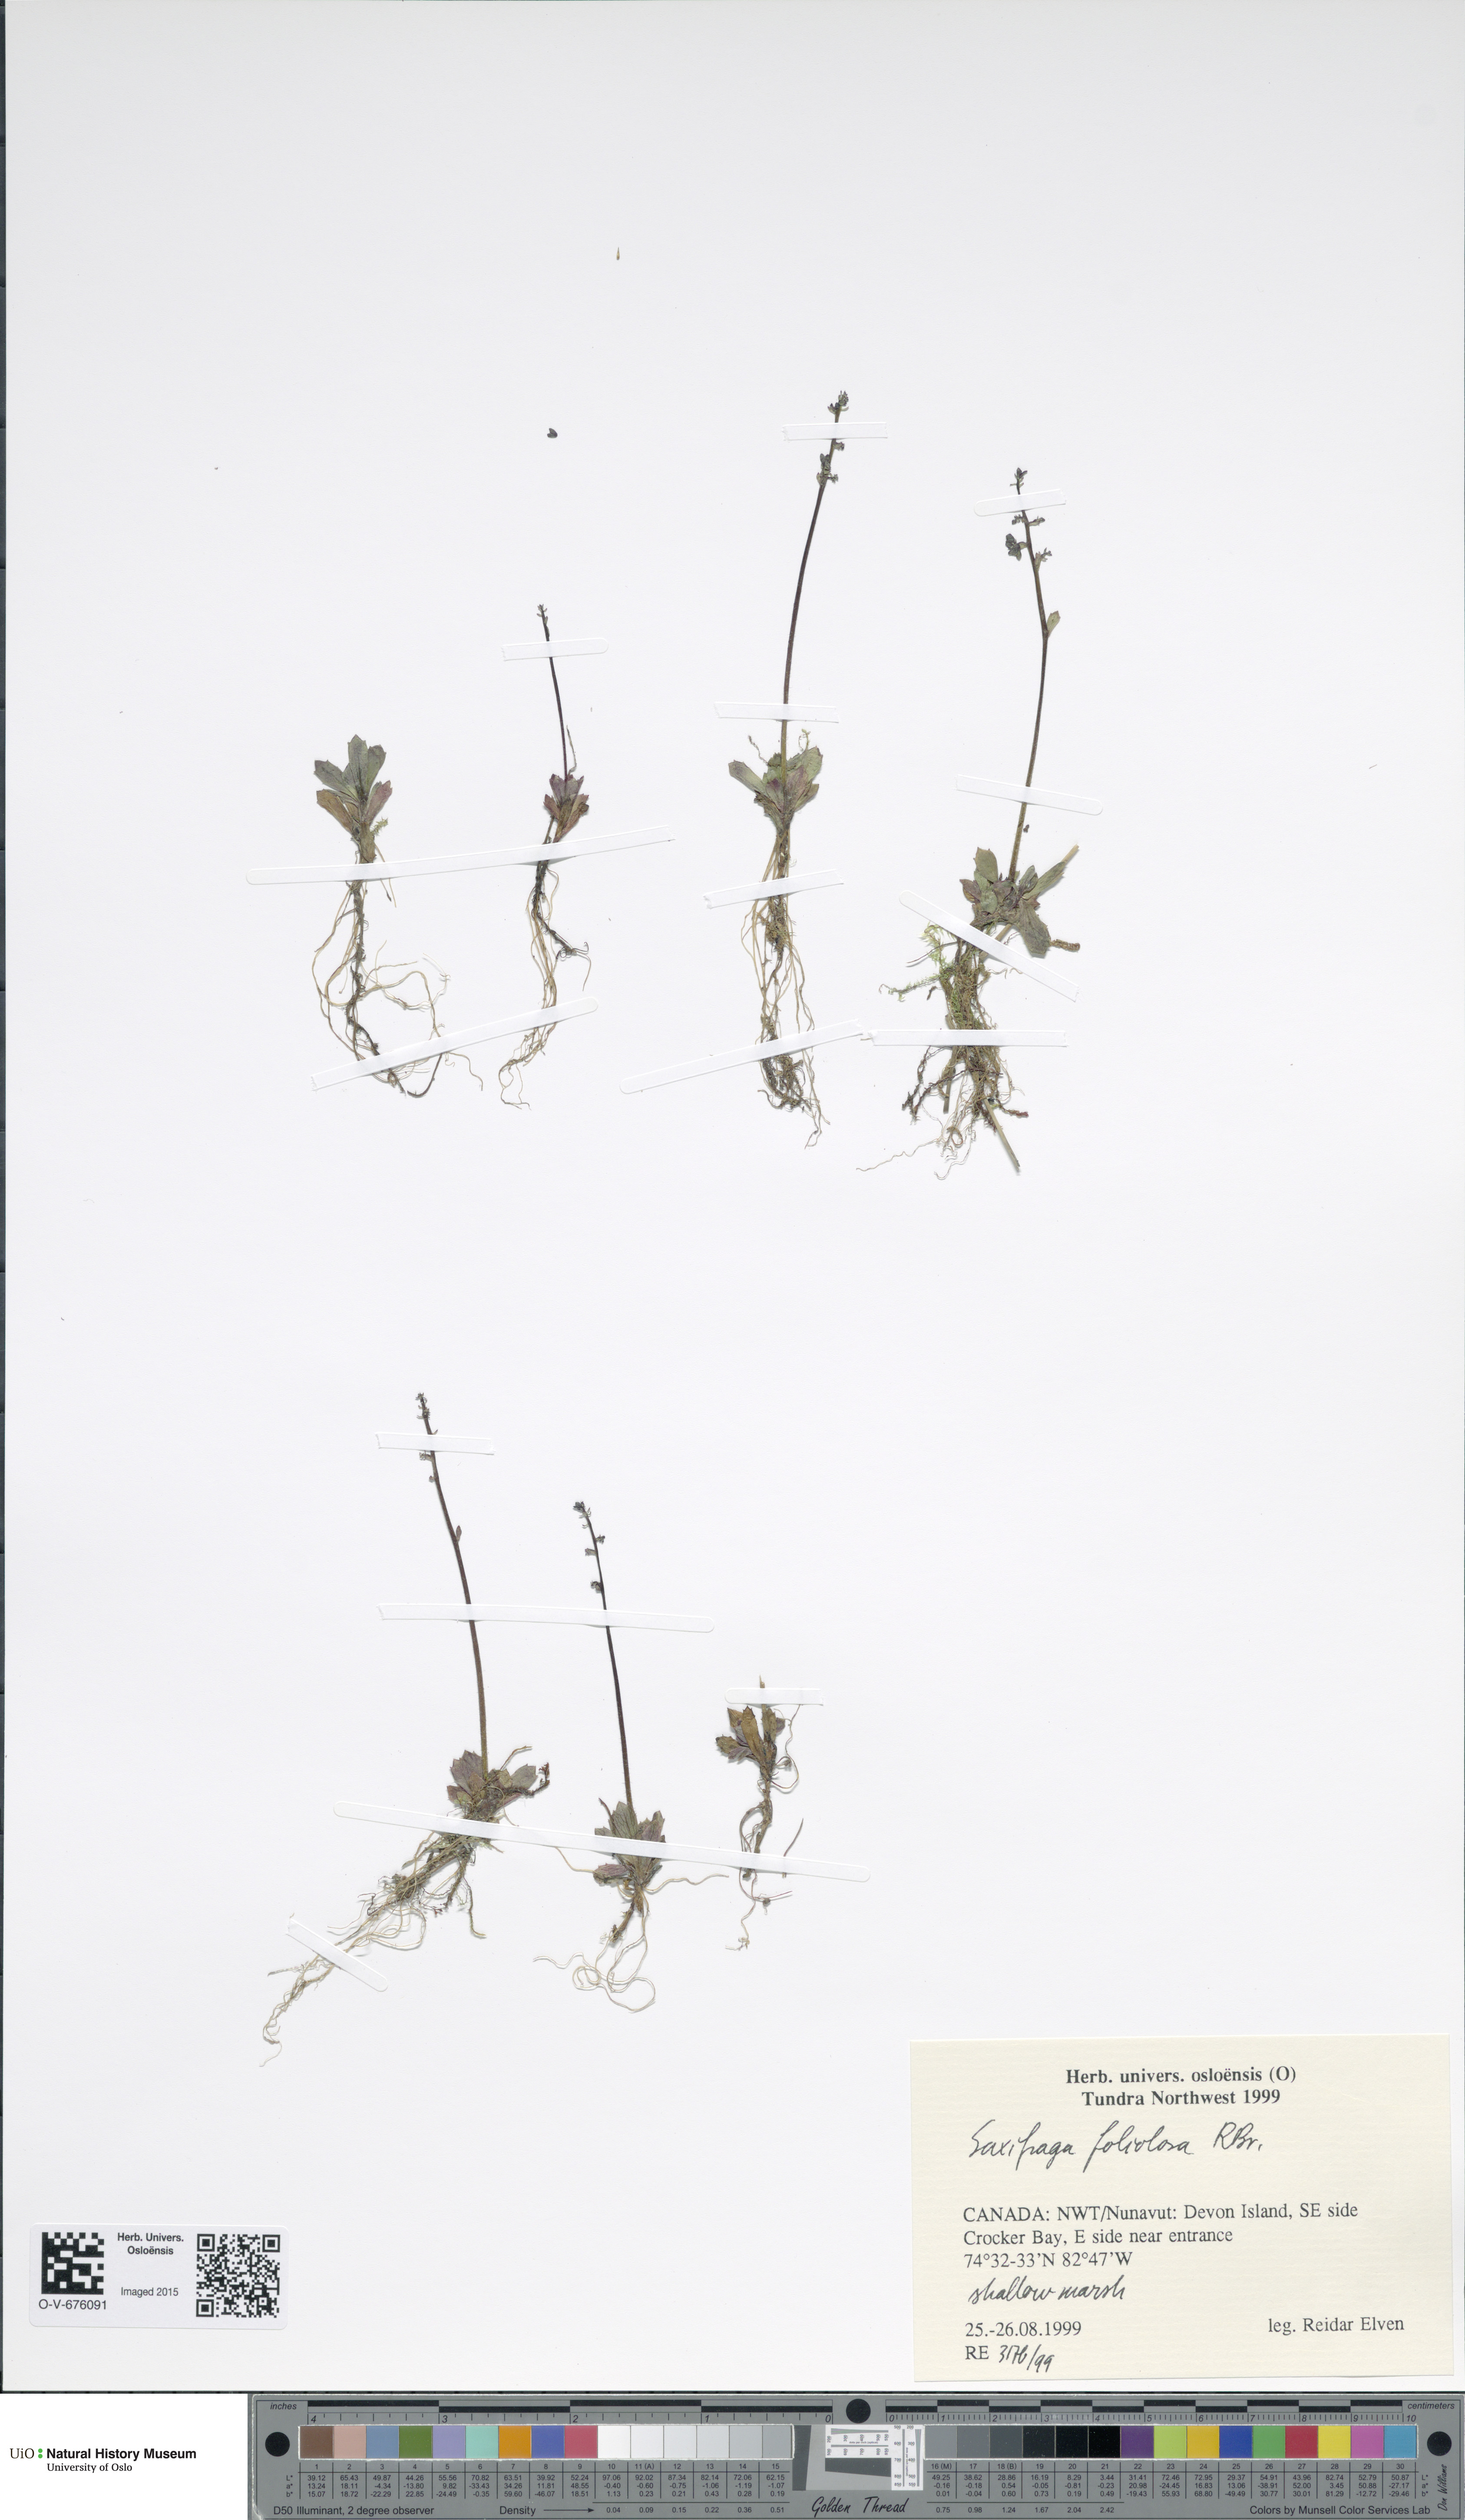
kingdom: Plantae
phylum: Tracheophyta
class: Magnoliopsida
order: Saxifragales
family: Saxifragaceae
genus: Micranthes
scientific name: Micranthes foliolosa
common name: Leafystem saxifrage
